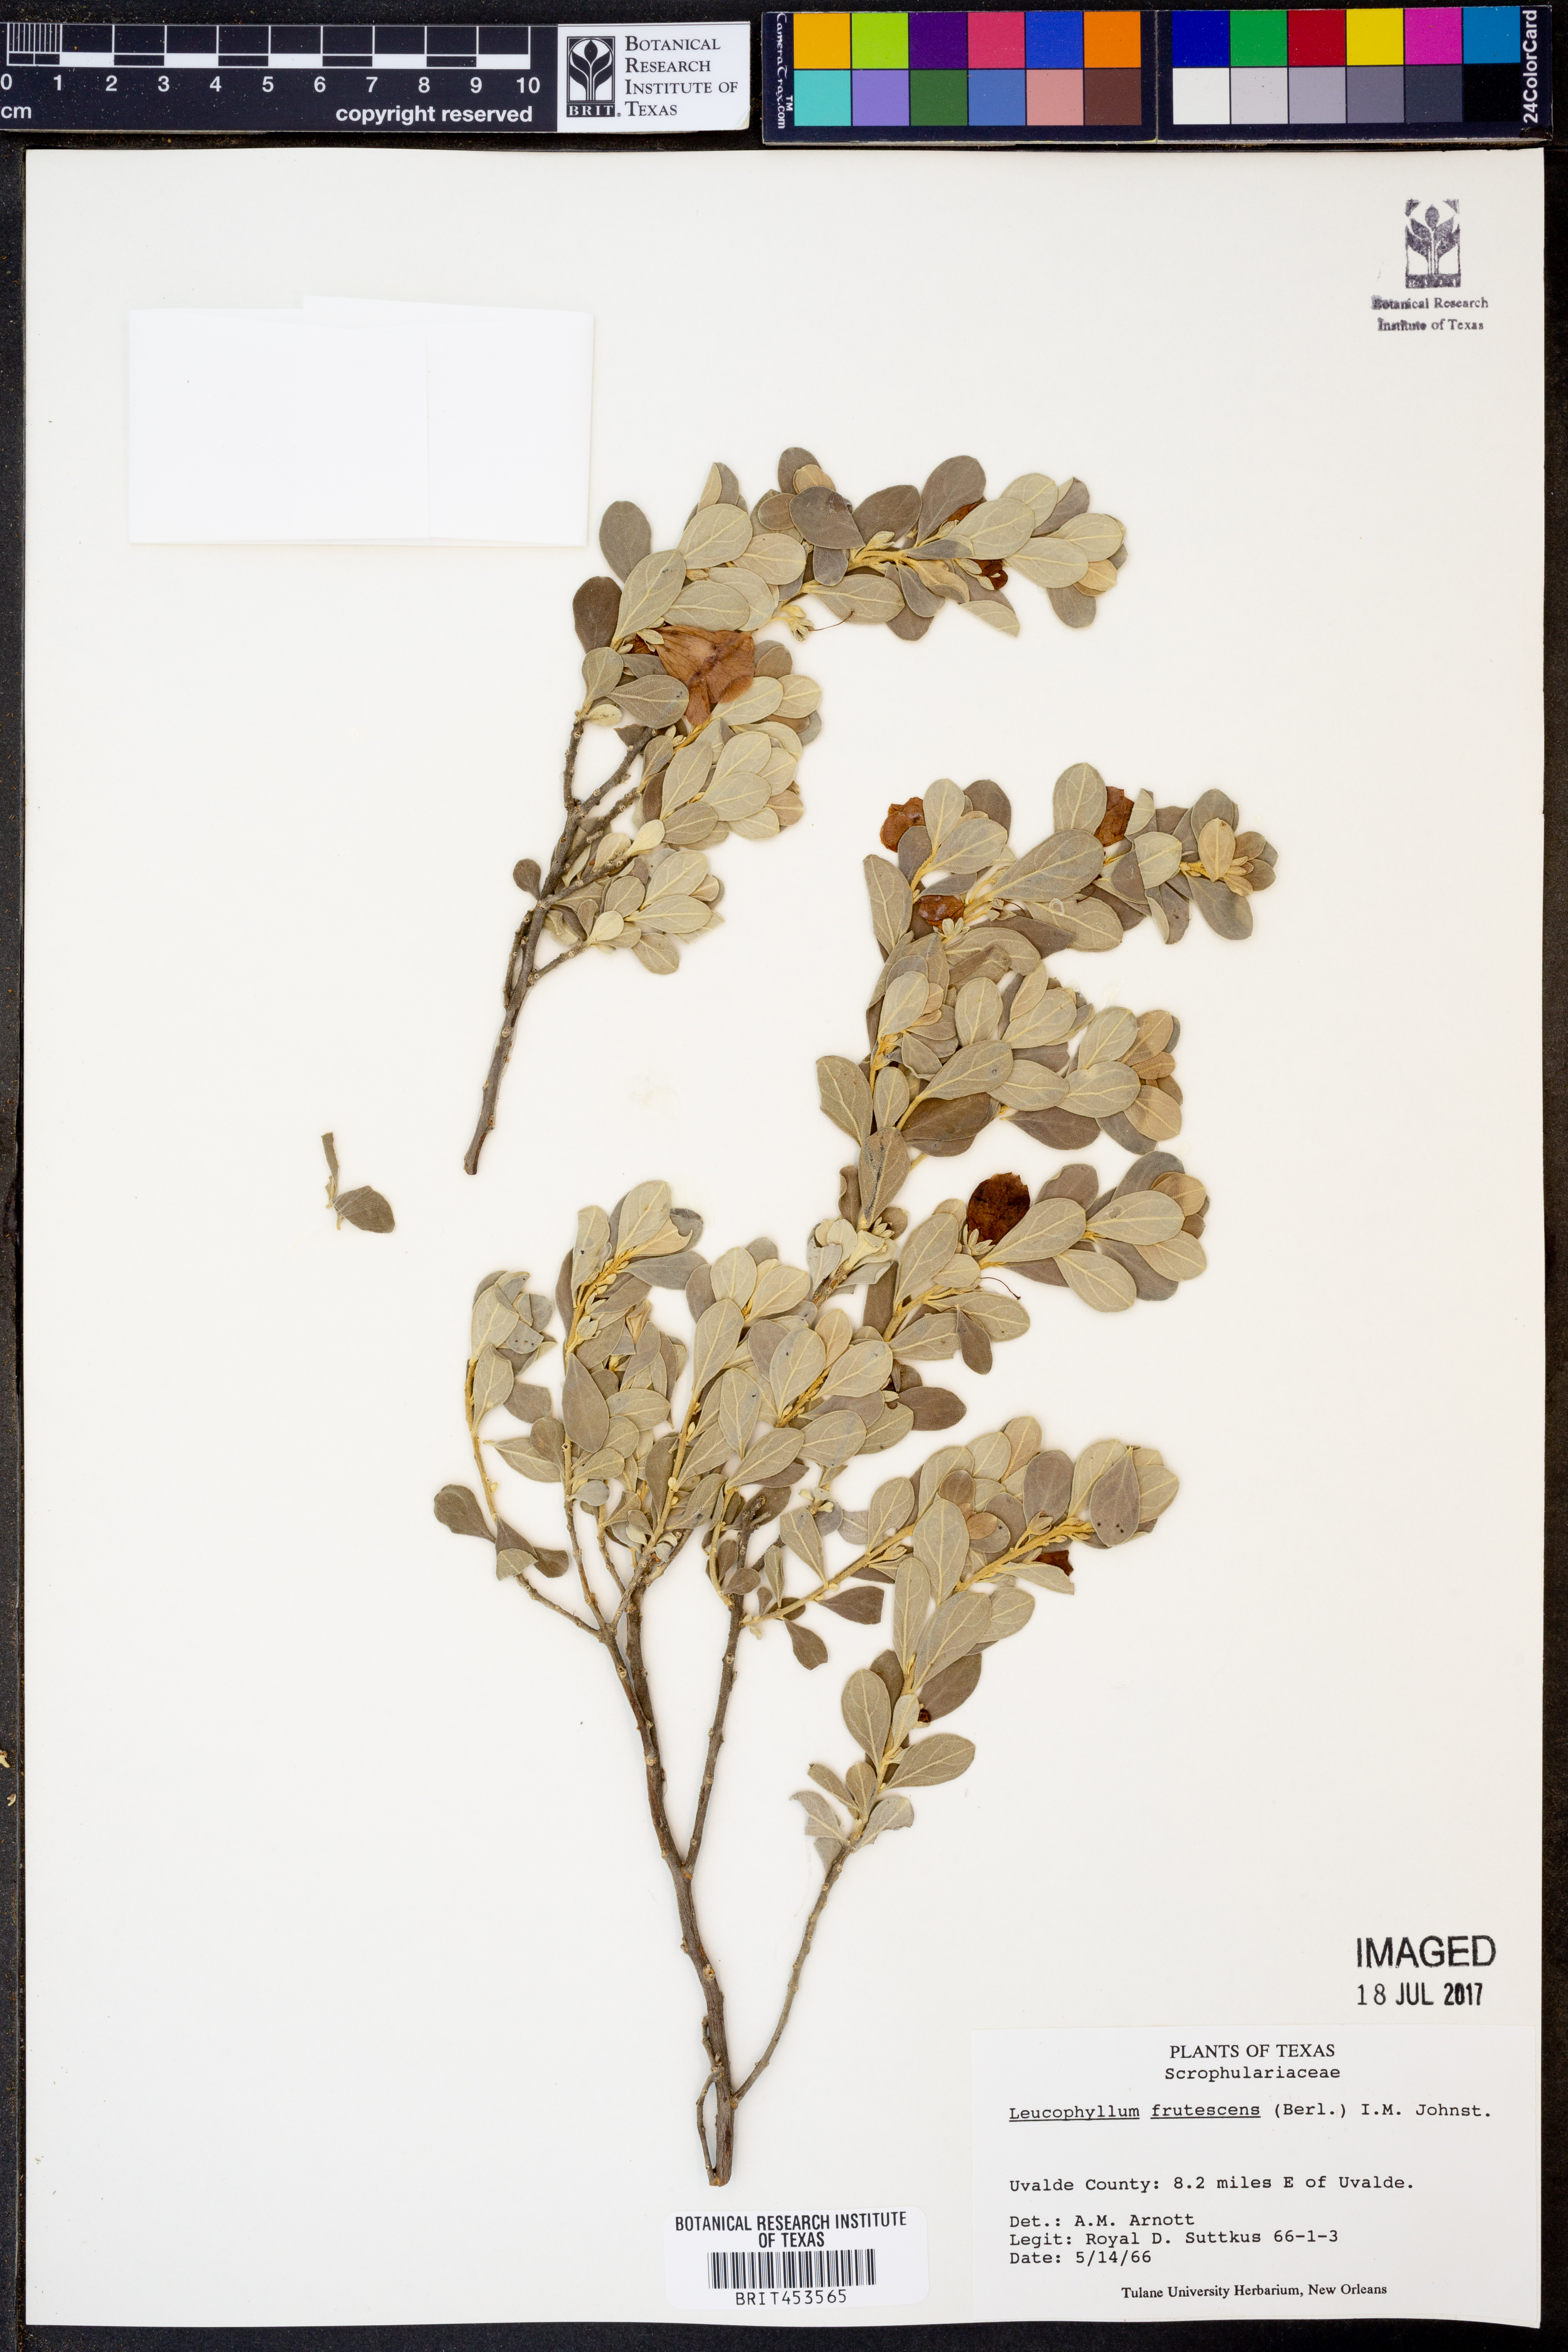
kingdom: Plantae
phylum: Tracheophyta
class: Magnoliopsida
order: Lamiales
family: Scrophulariaceae
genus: Leucophyllum
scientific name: Leucophyllum frutescens
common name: Texas silverleaf
